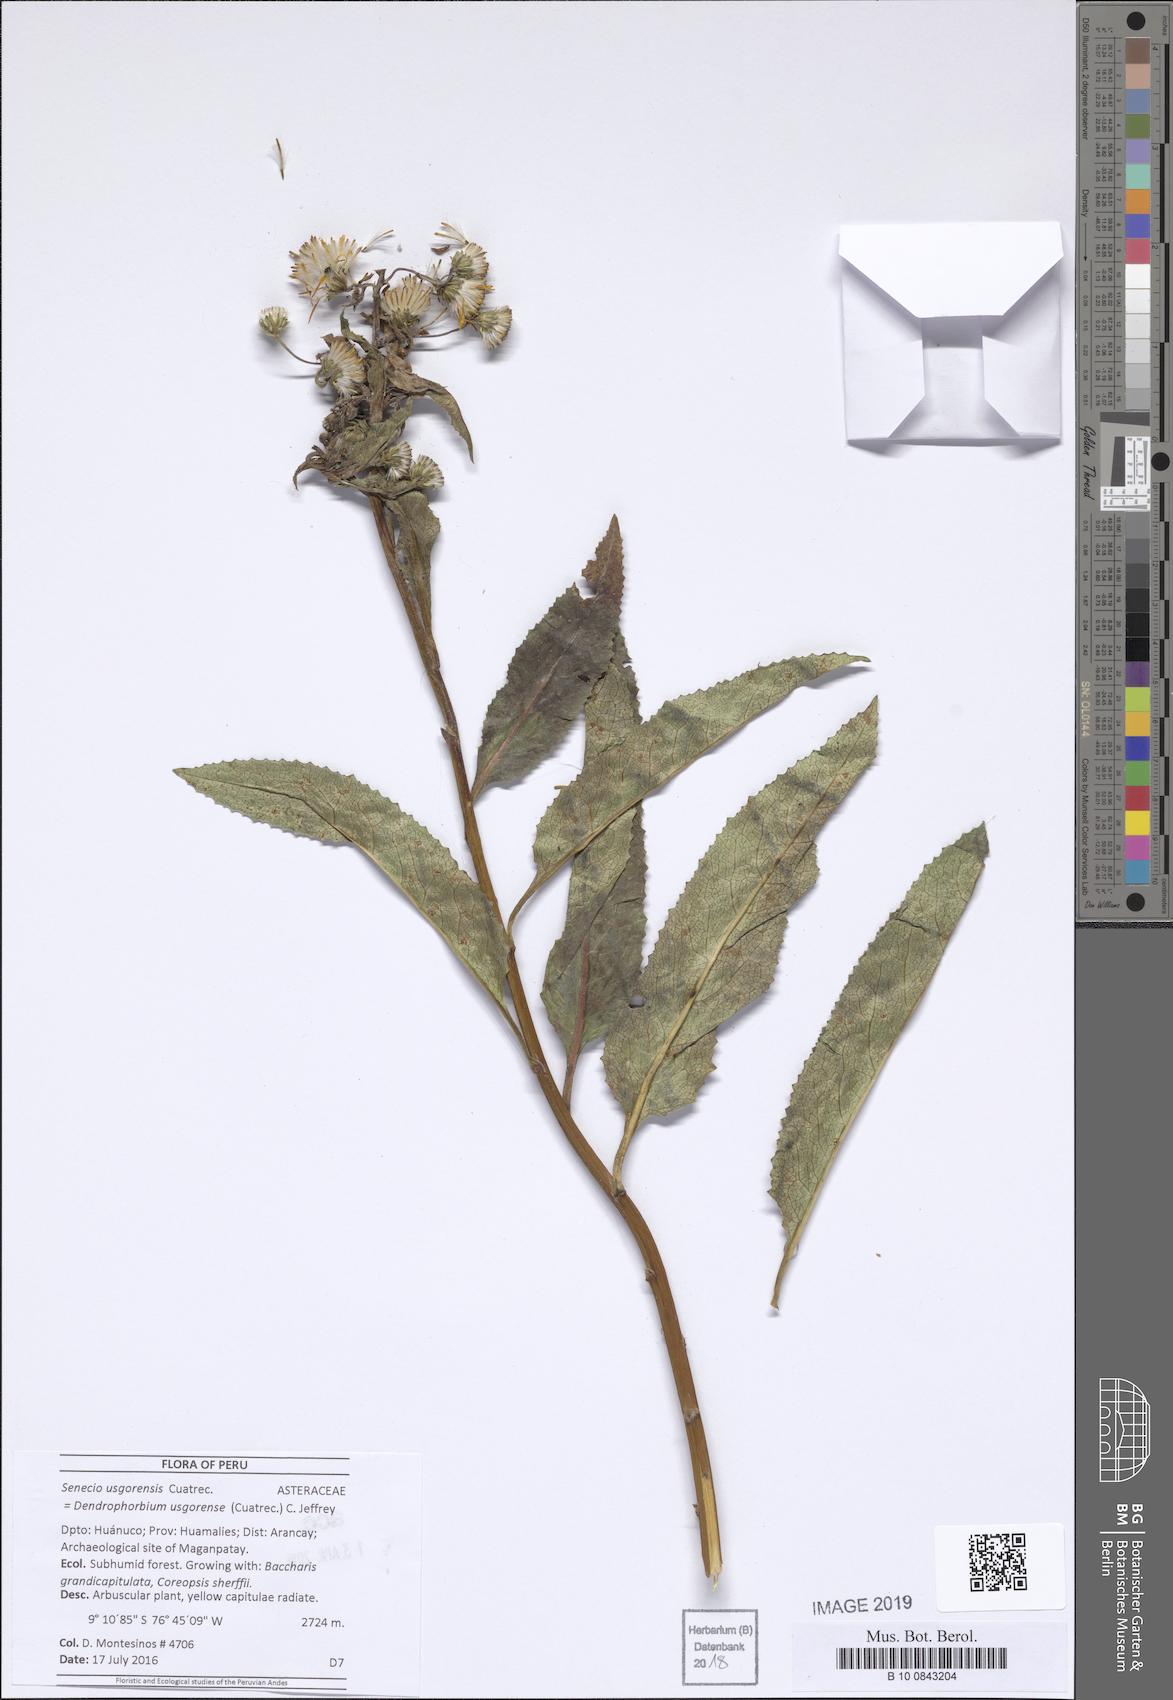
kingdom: Plantae
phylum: Tracheophyta
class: Magnoliopsida
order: Asterales
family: Asteraceae
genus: Dendrophorbium
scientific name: Dendrophorbium elatum
